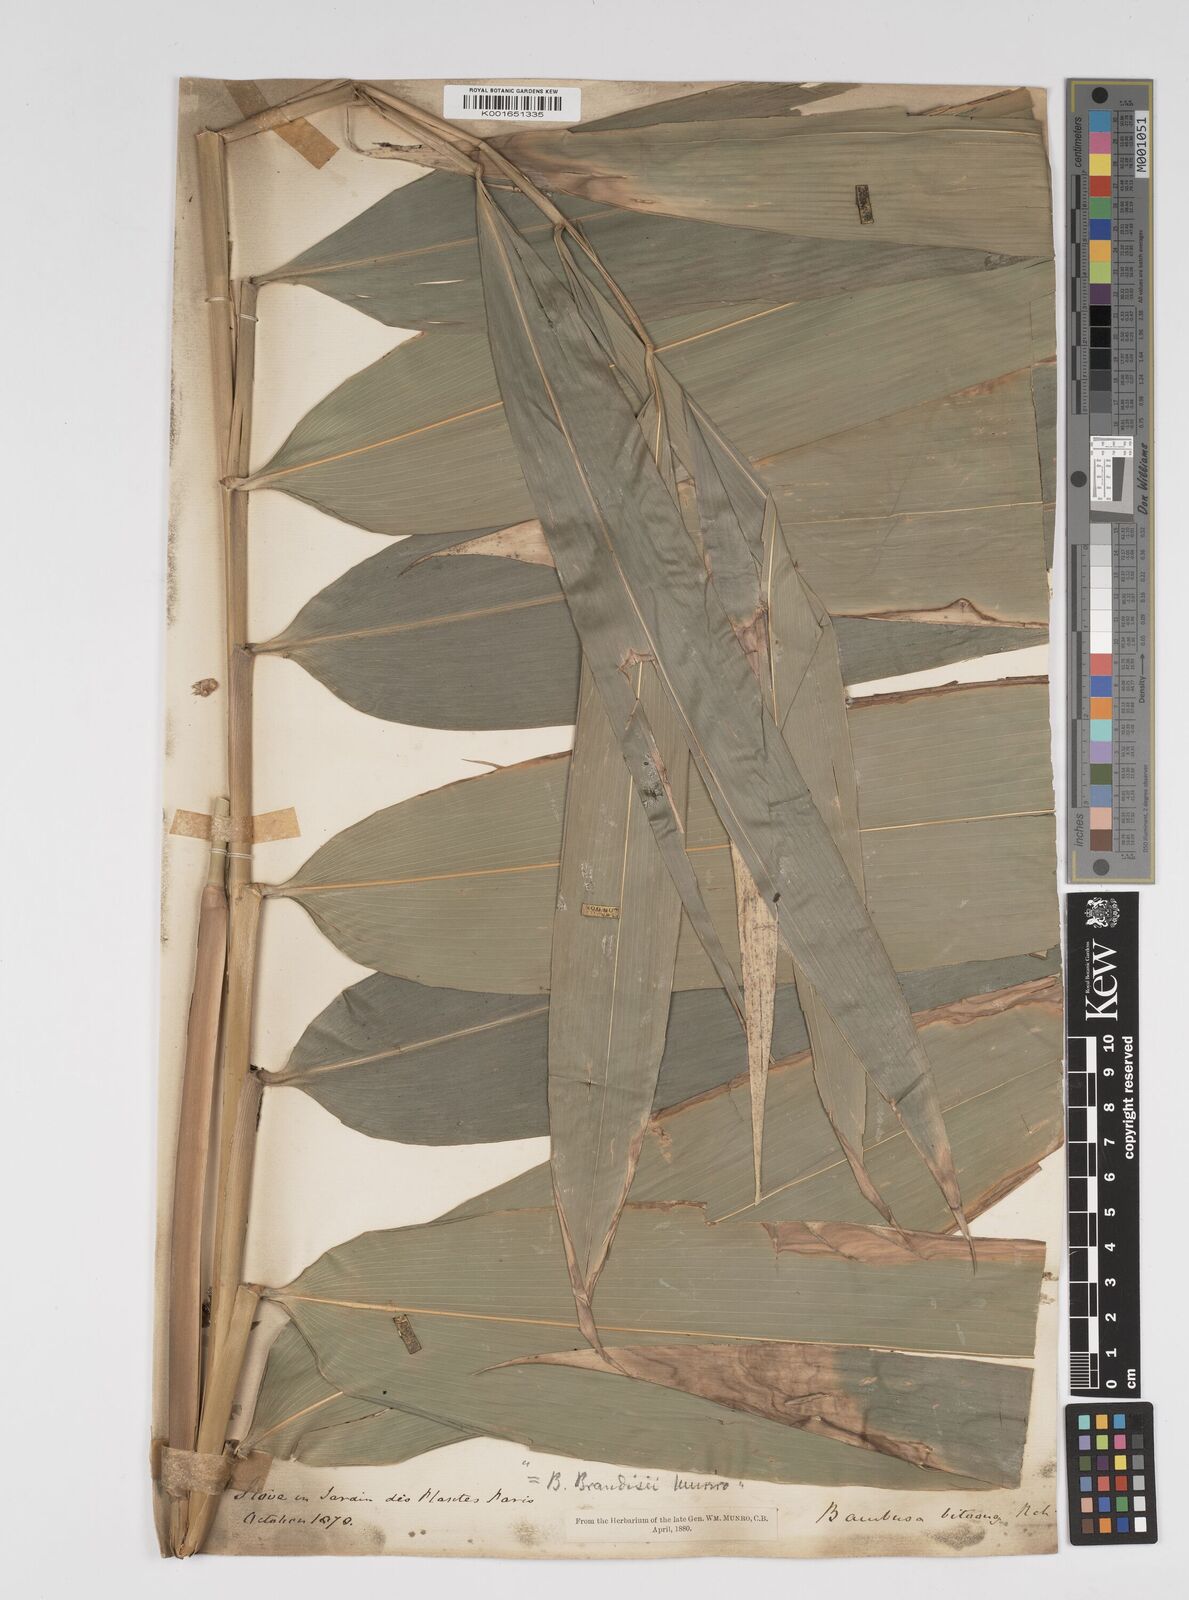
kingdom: Plantae
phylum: Tracheophyta
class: Liliopsida
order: Poales
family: Poaceae
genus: Dendrocalamus
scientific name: Dendrocalamus brandisii
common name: Velvetleaf bamboo
